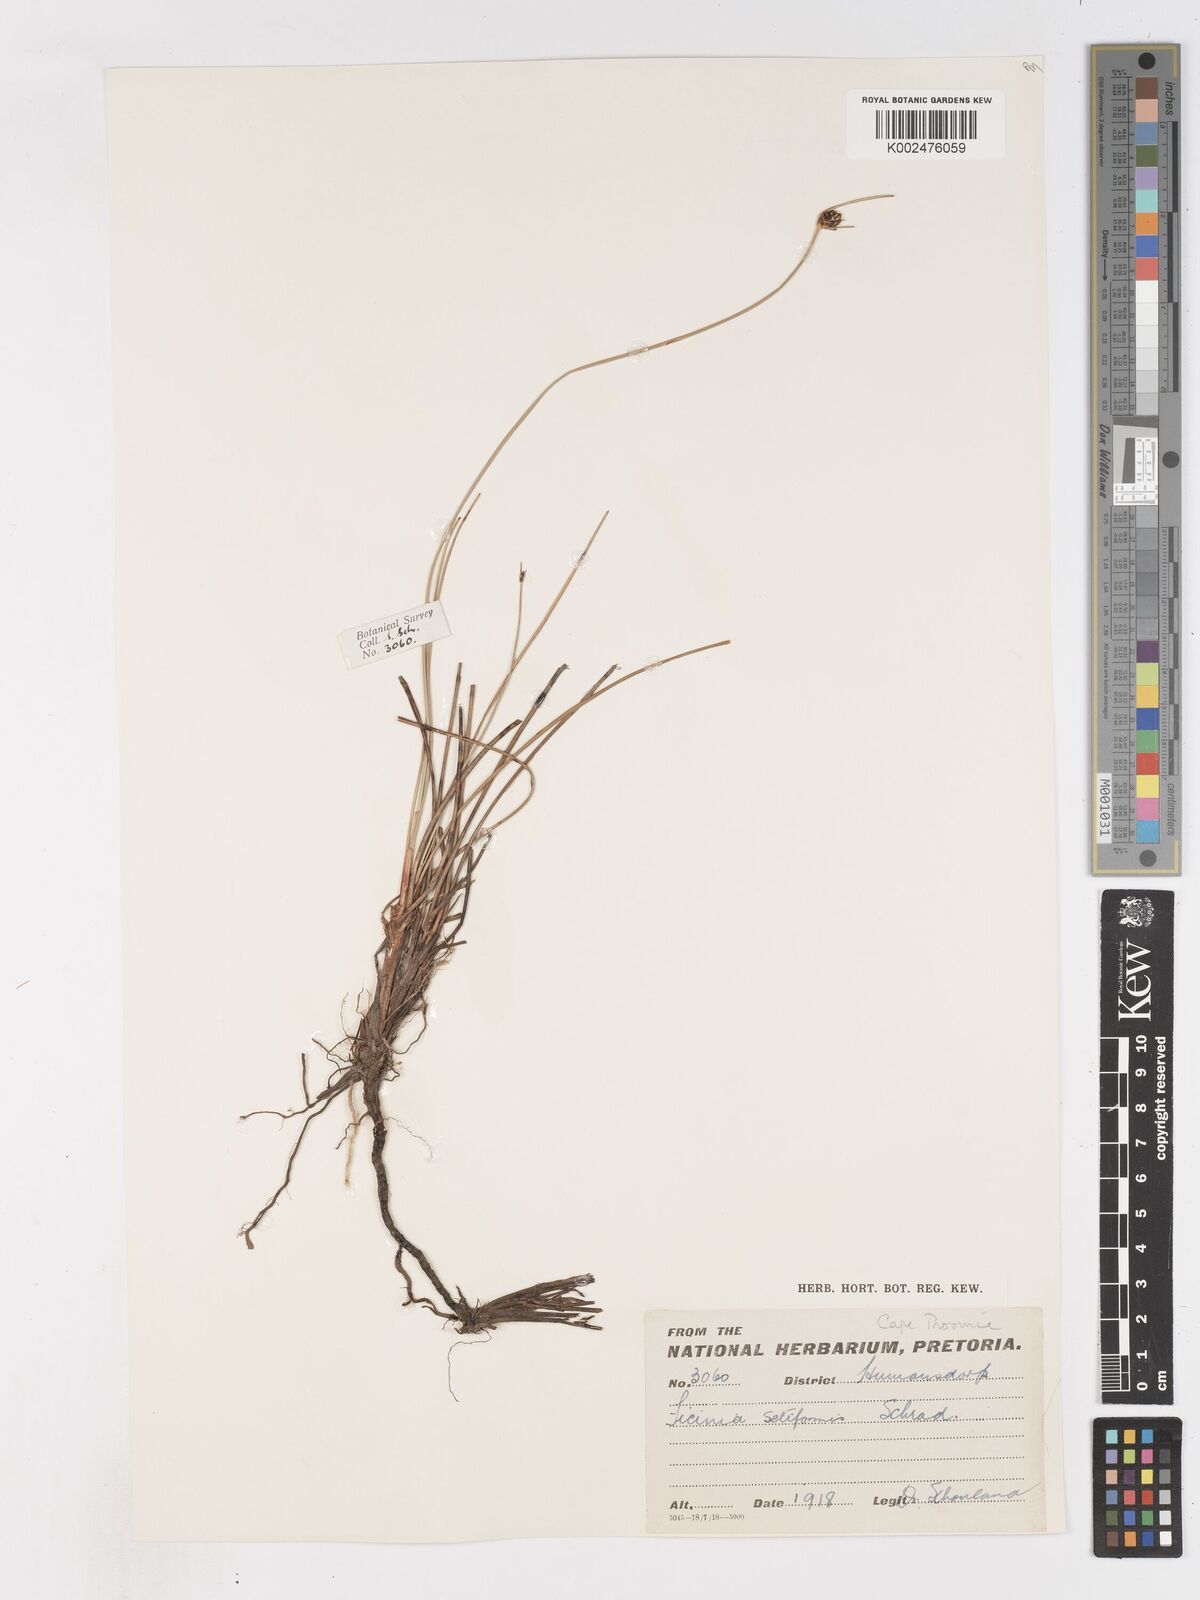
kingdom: Plantae
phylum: Tracheophyta
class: Liliopsida
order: Poales
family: Cyperaceae
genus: Ficinia
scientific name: Ficinia indica
